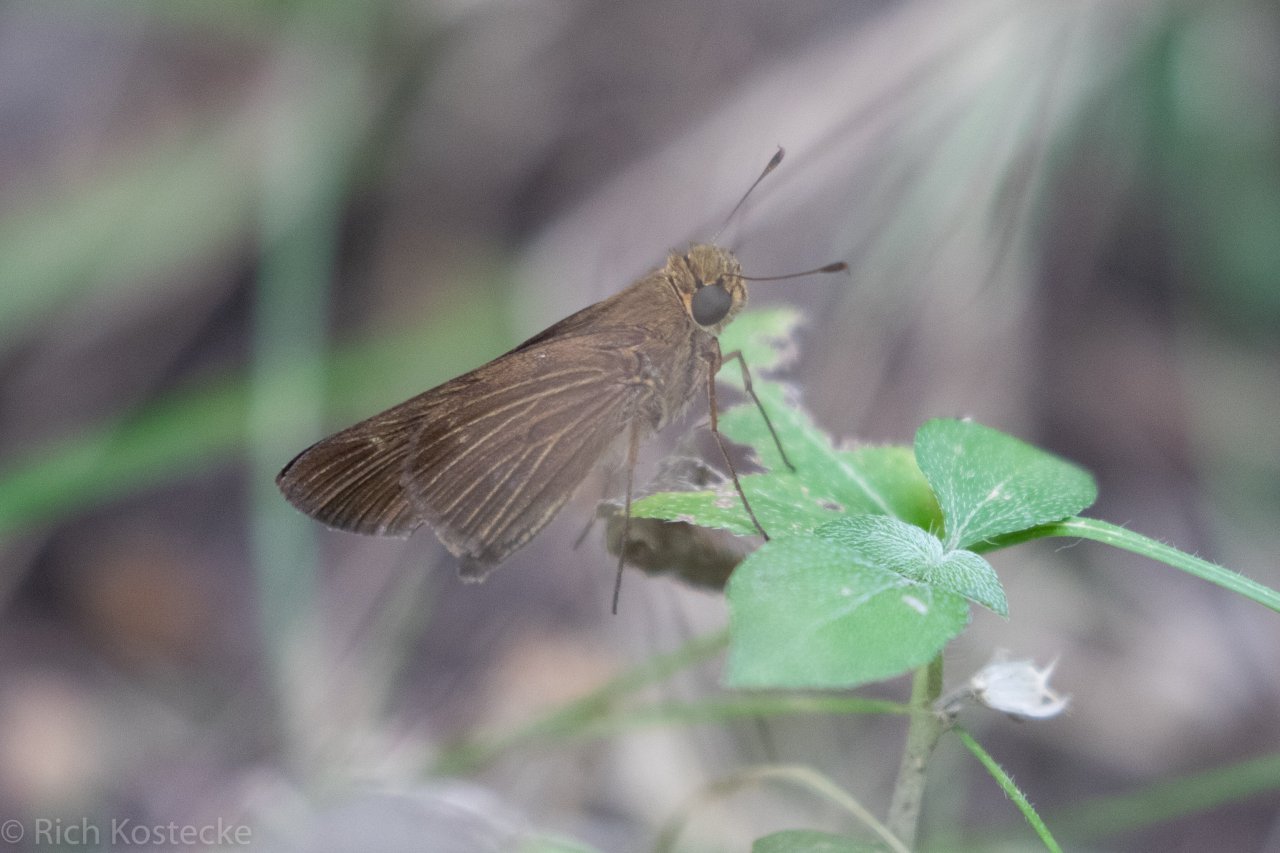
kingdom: Animalia
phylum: Arthropoda
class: Insecta
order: Lepidoptera
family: Hesperiidae
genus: Panoquina
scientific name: Panoquina ocola
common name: Ocola Skipper
